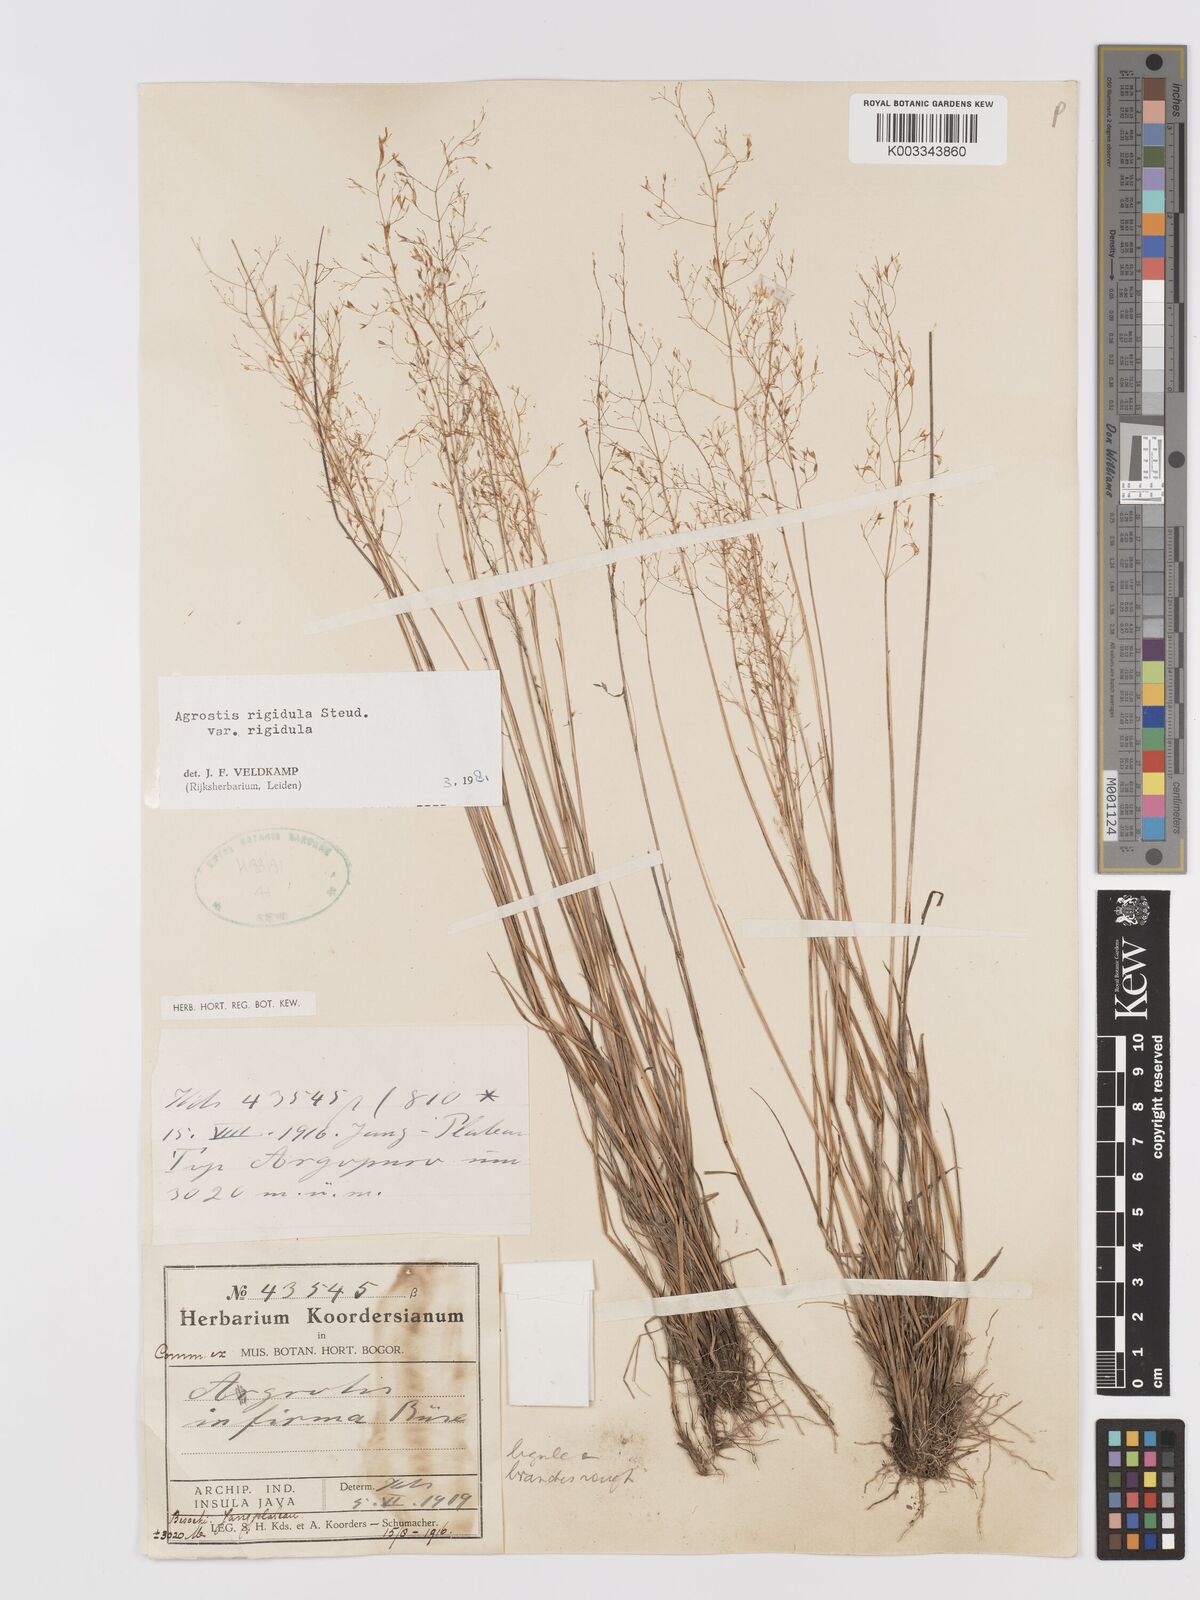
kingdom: Plantae
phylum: Tracheophyta
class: Liliopsida
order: Poales
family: Poaceae
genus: Agrostis
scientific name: Agrostis infirma
